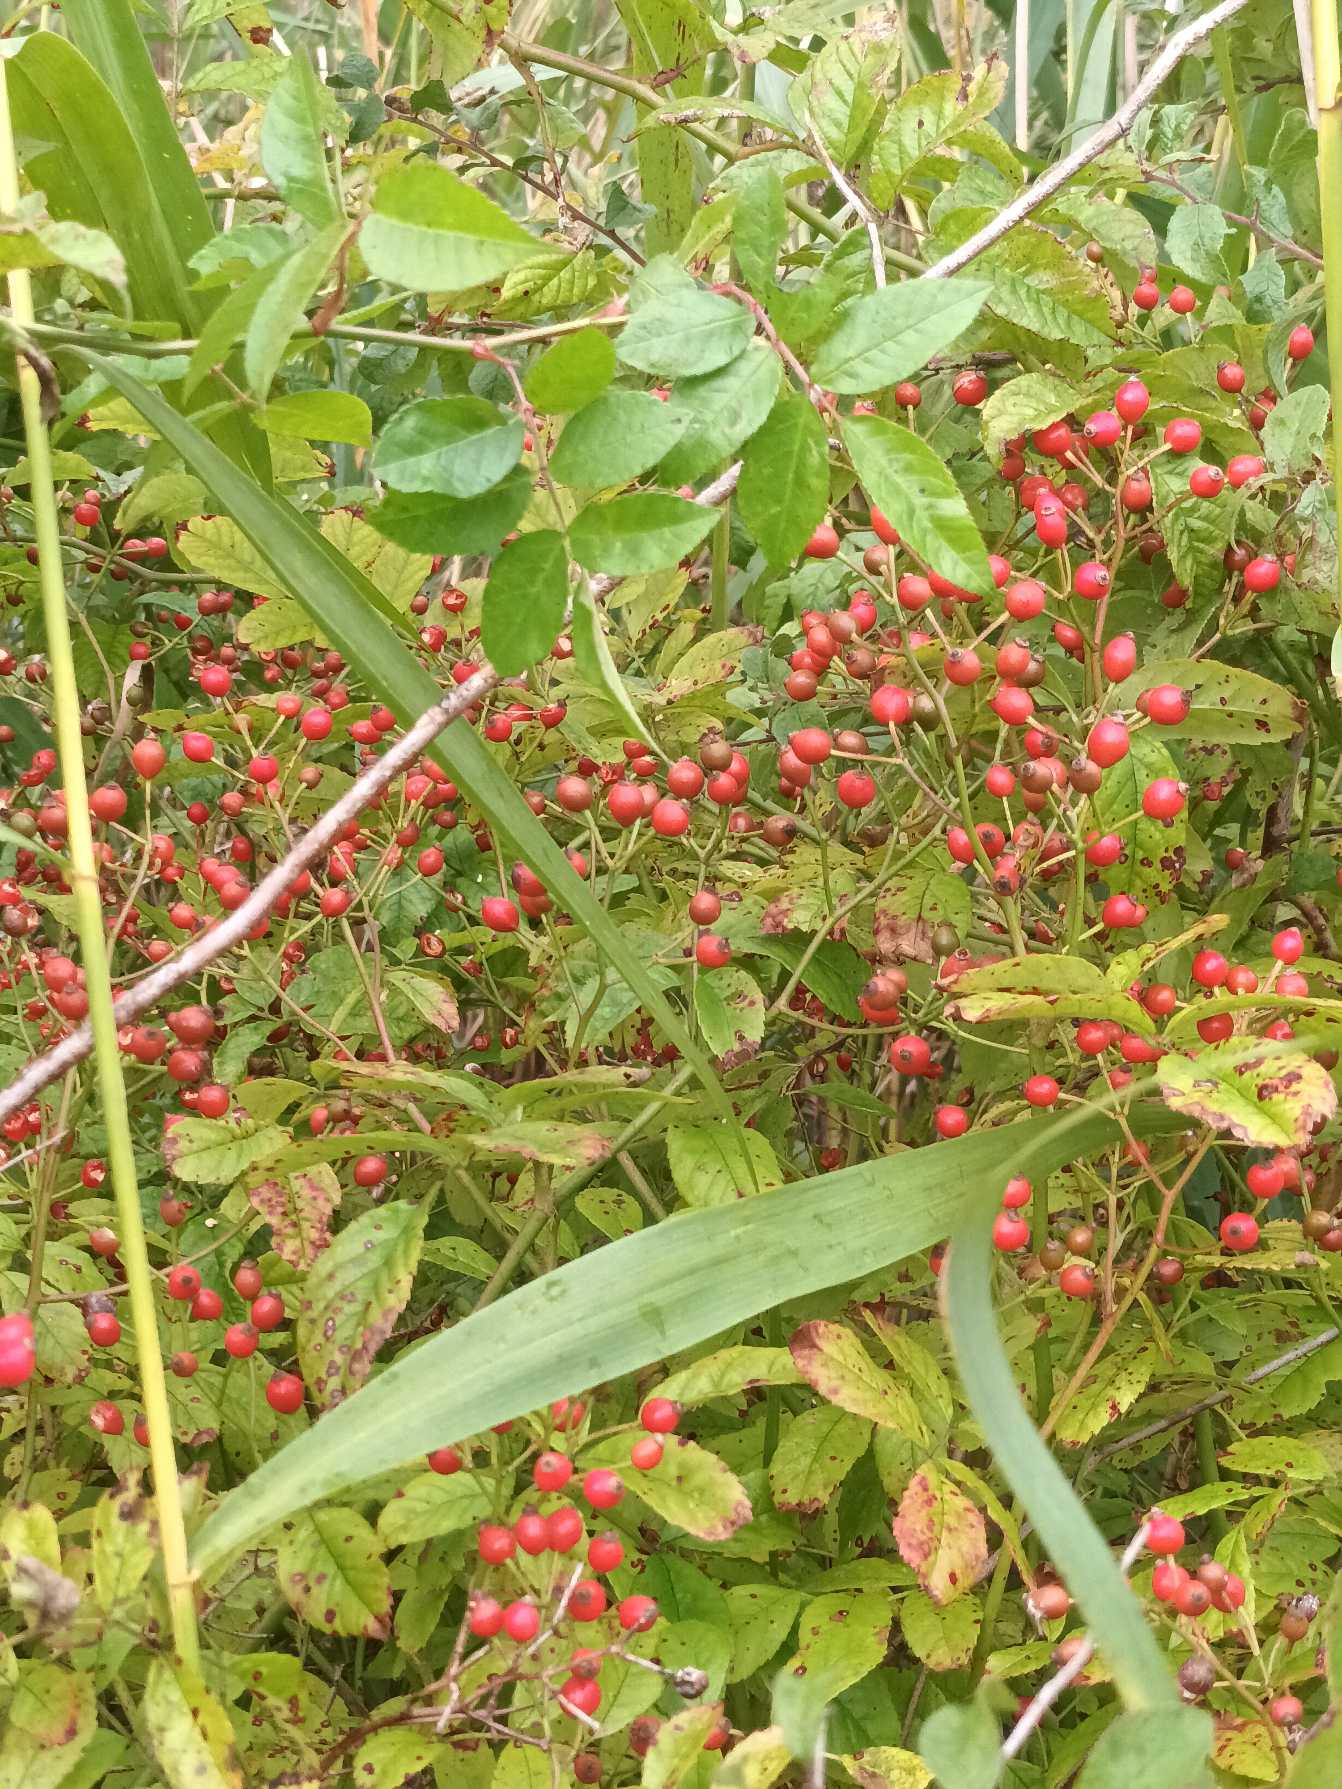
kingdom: Plantae
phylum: Tracheophyta
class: Magnoliopsida
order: Rosales
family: Rosaceae
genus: Rosa
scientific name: Rosa multiflora
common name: Mangeblomstret rose
